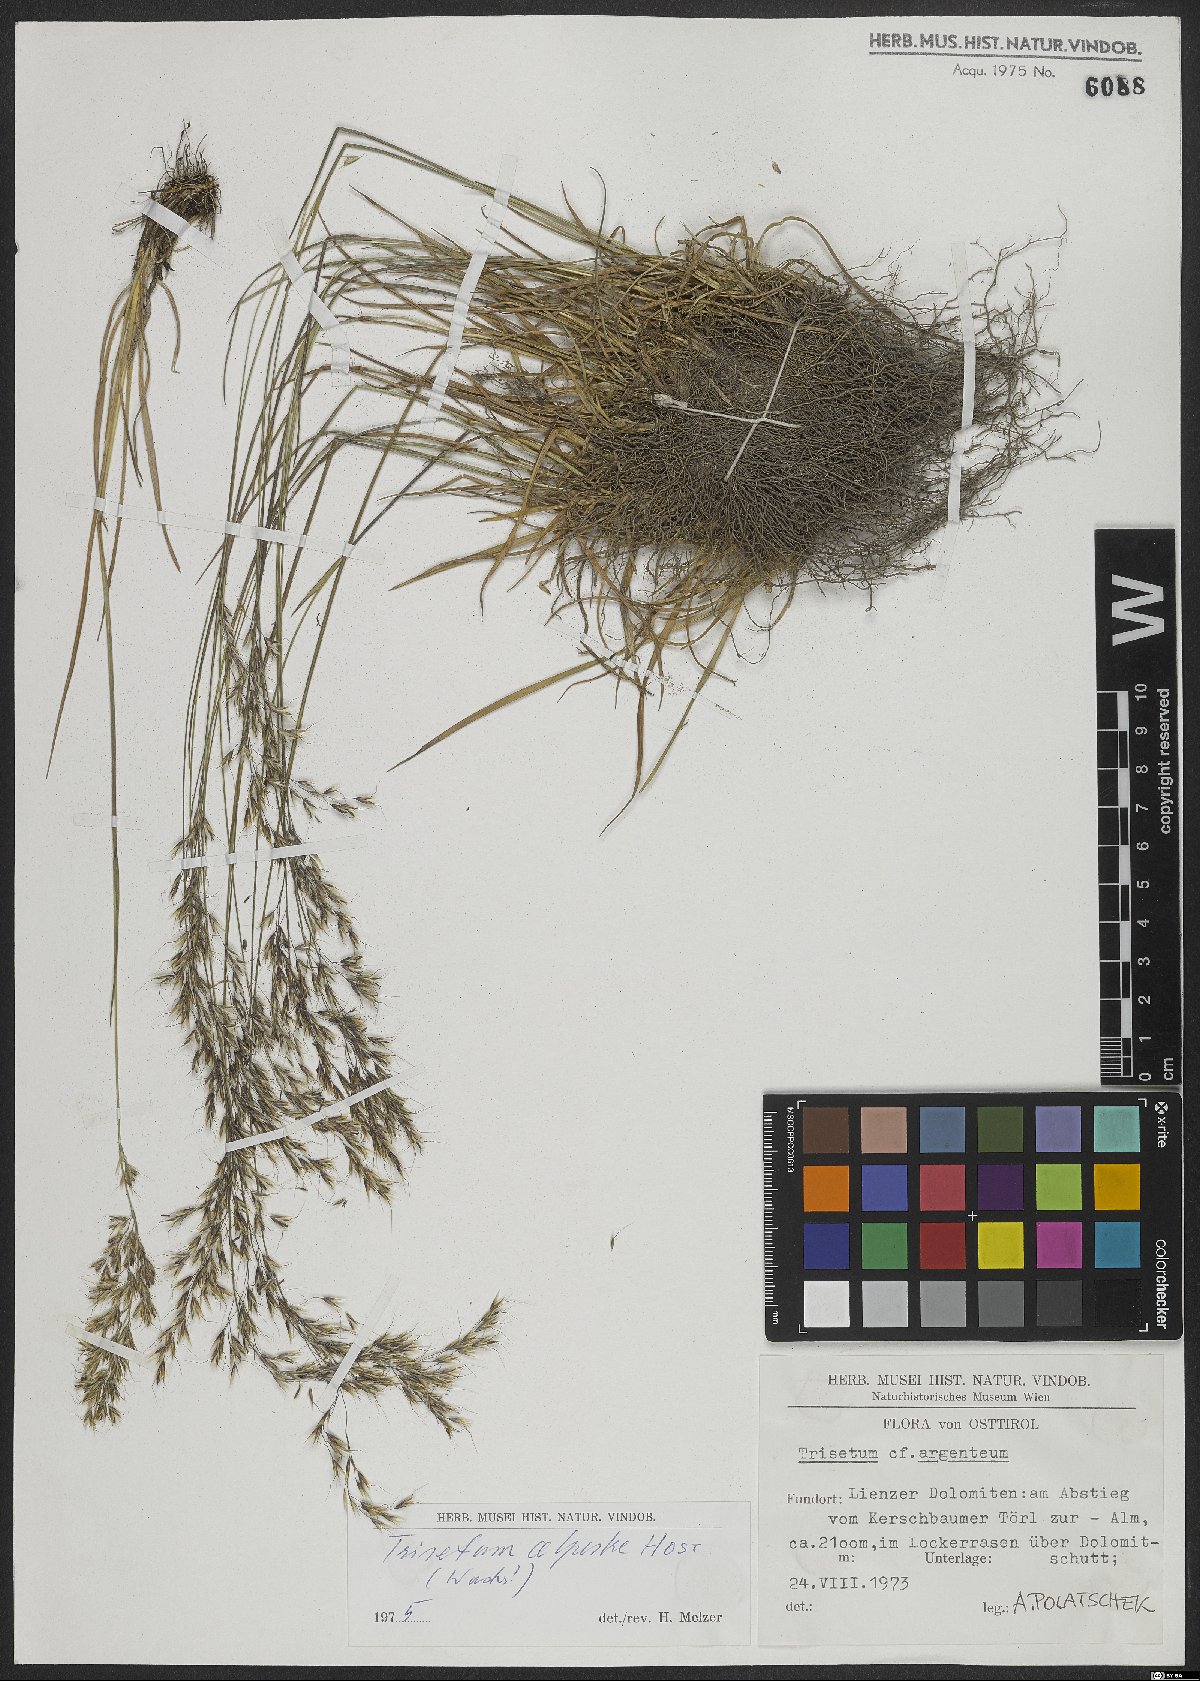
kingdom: Plantae
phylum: Tracheophyta
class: Liliopsida
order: Poales
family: Poaceae
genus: Trisetum
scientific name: Trisetum alpestre
